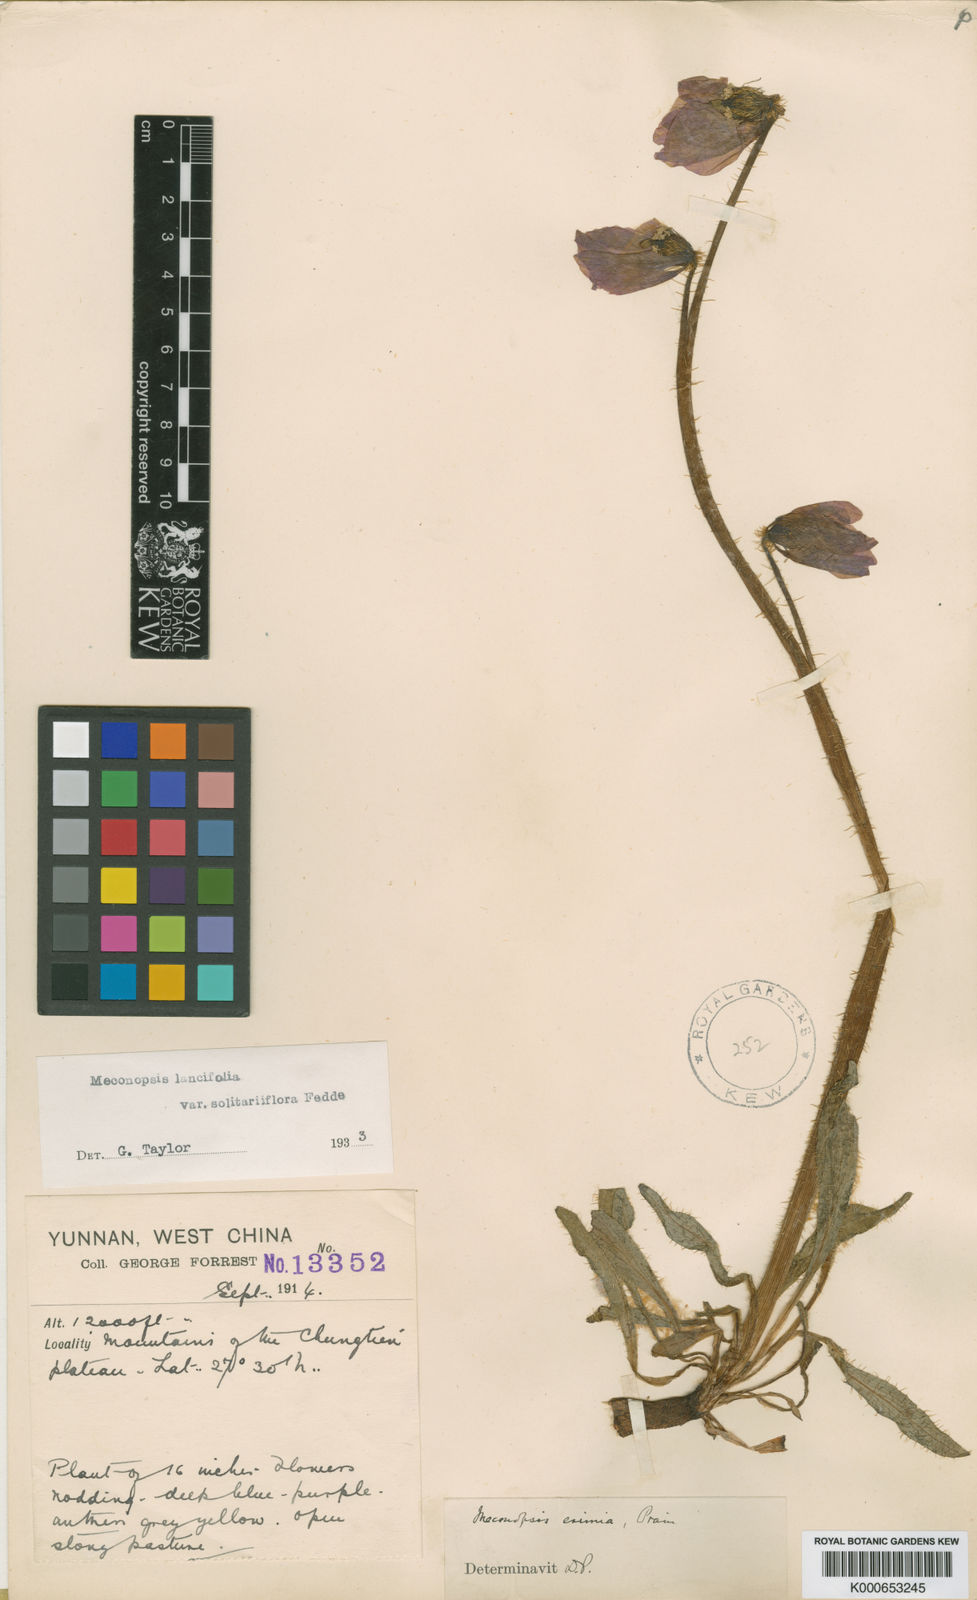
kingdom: Plantae
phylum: Tracheophyta
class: Magnoliopsida
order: Ranunculales
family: Papaveraceae
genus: Meconopsis
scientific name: Meconopsis lancifolia
